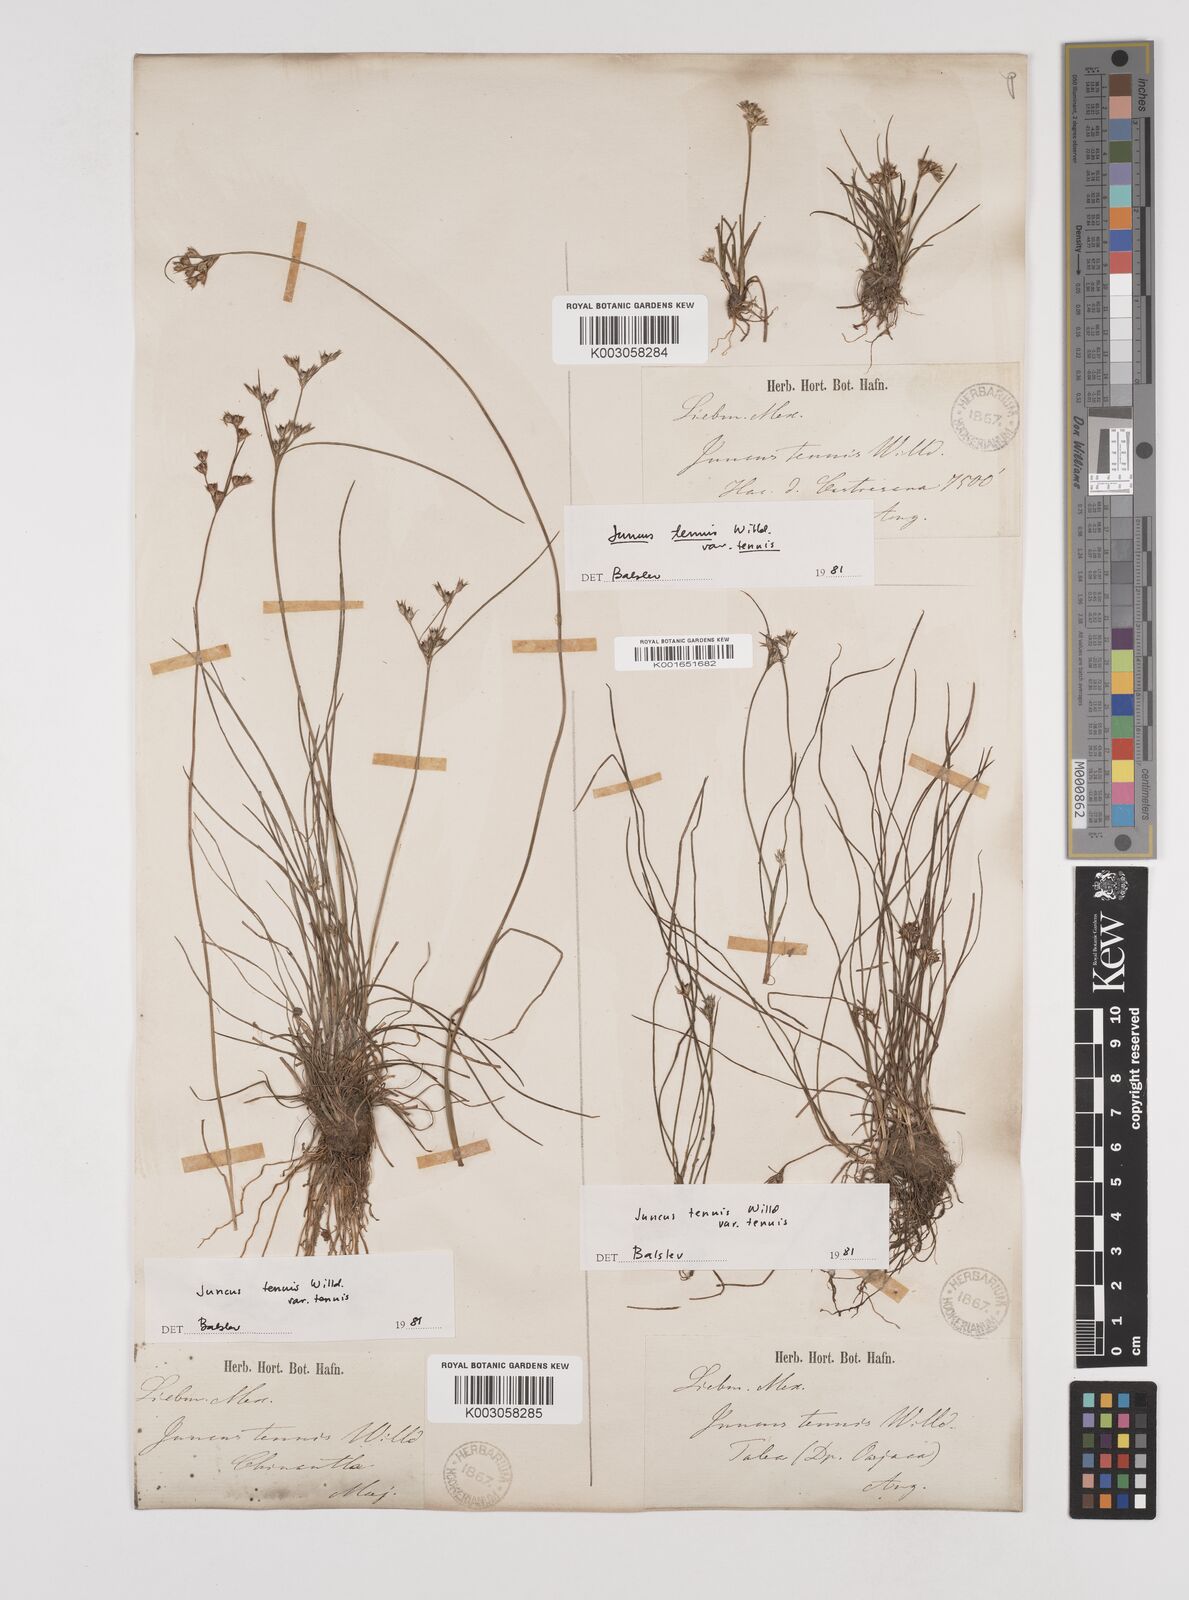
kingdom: Plantae
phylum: Tracheophyta
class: Liliopsida
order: Poales
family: Juncaceae
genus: Juncus
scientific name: Juncus tenuis
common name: Slender rush
